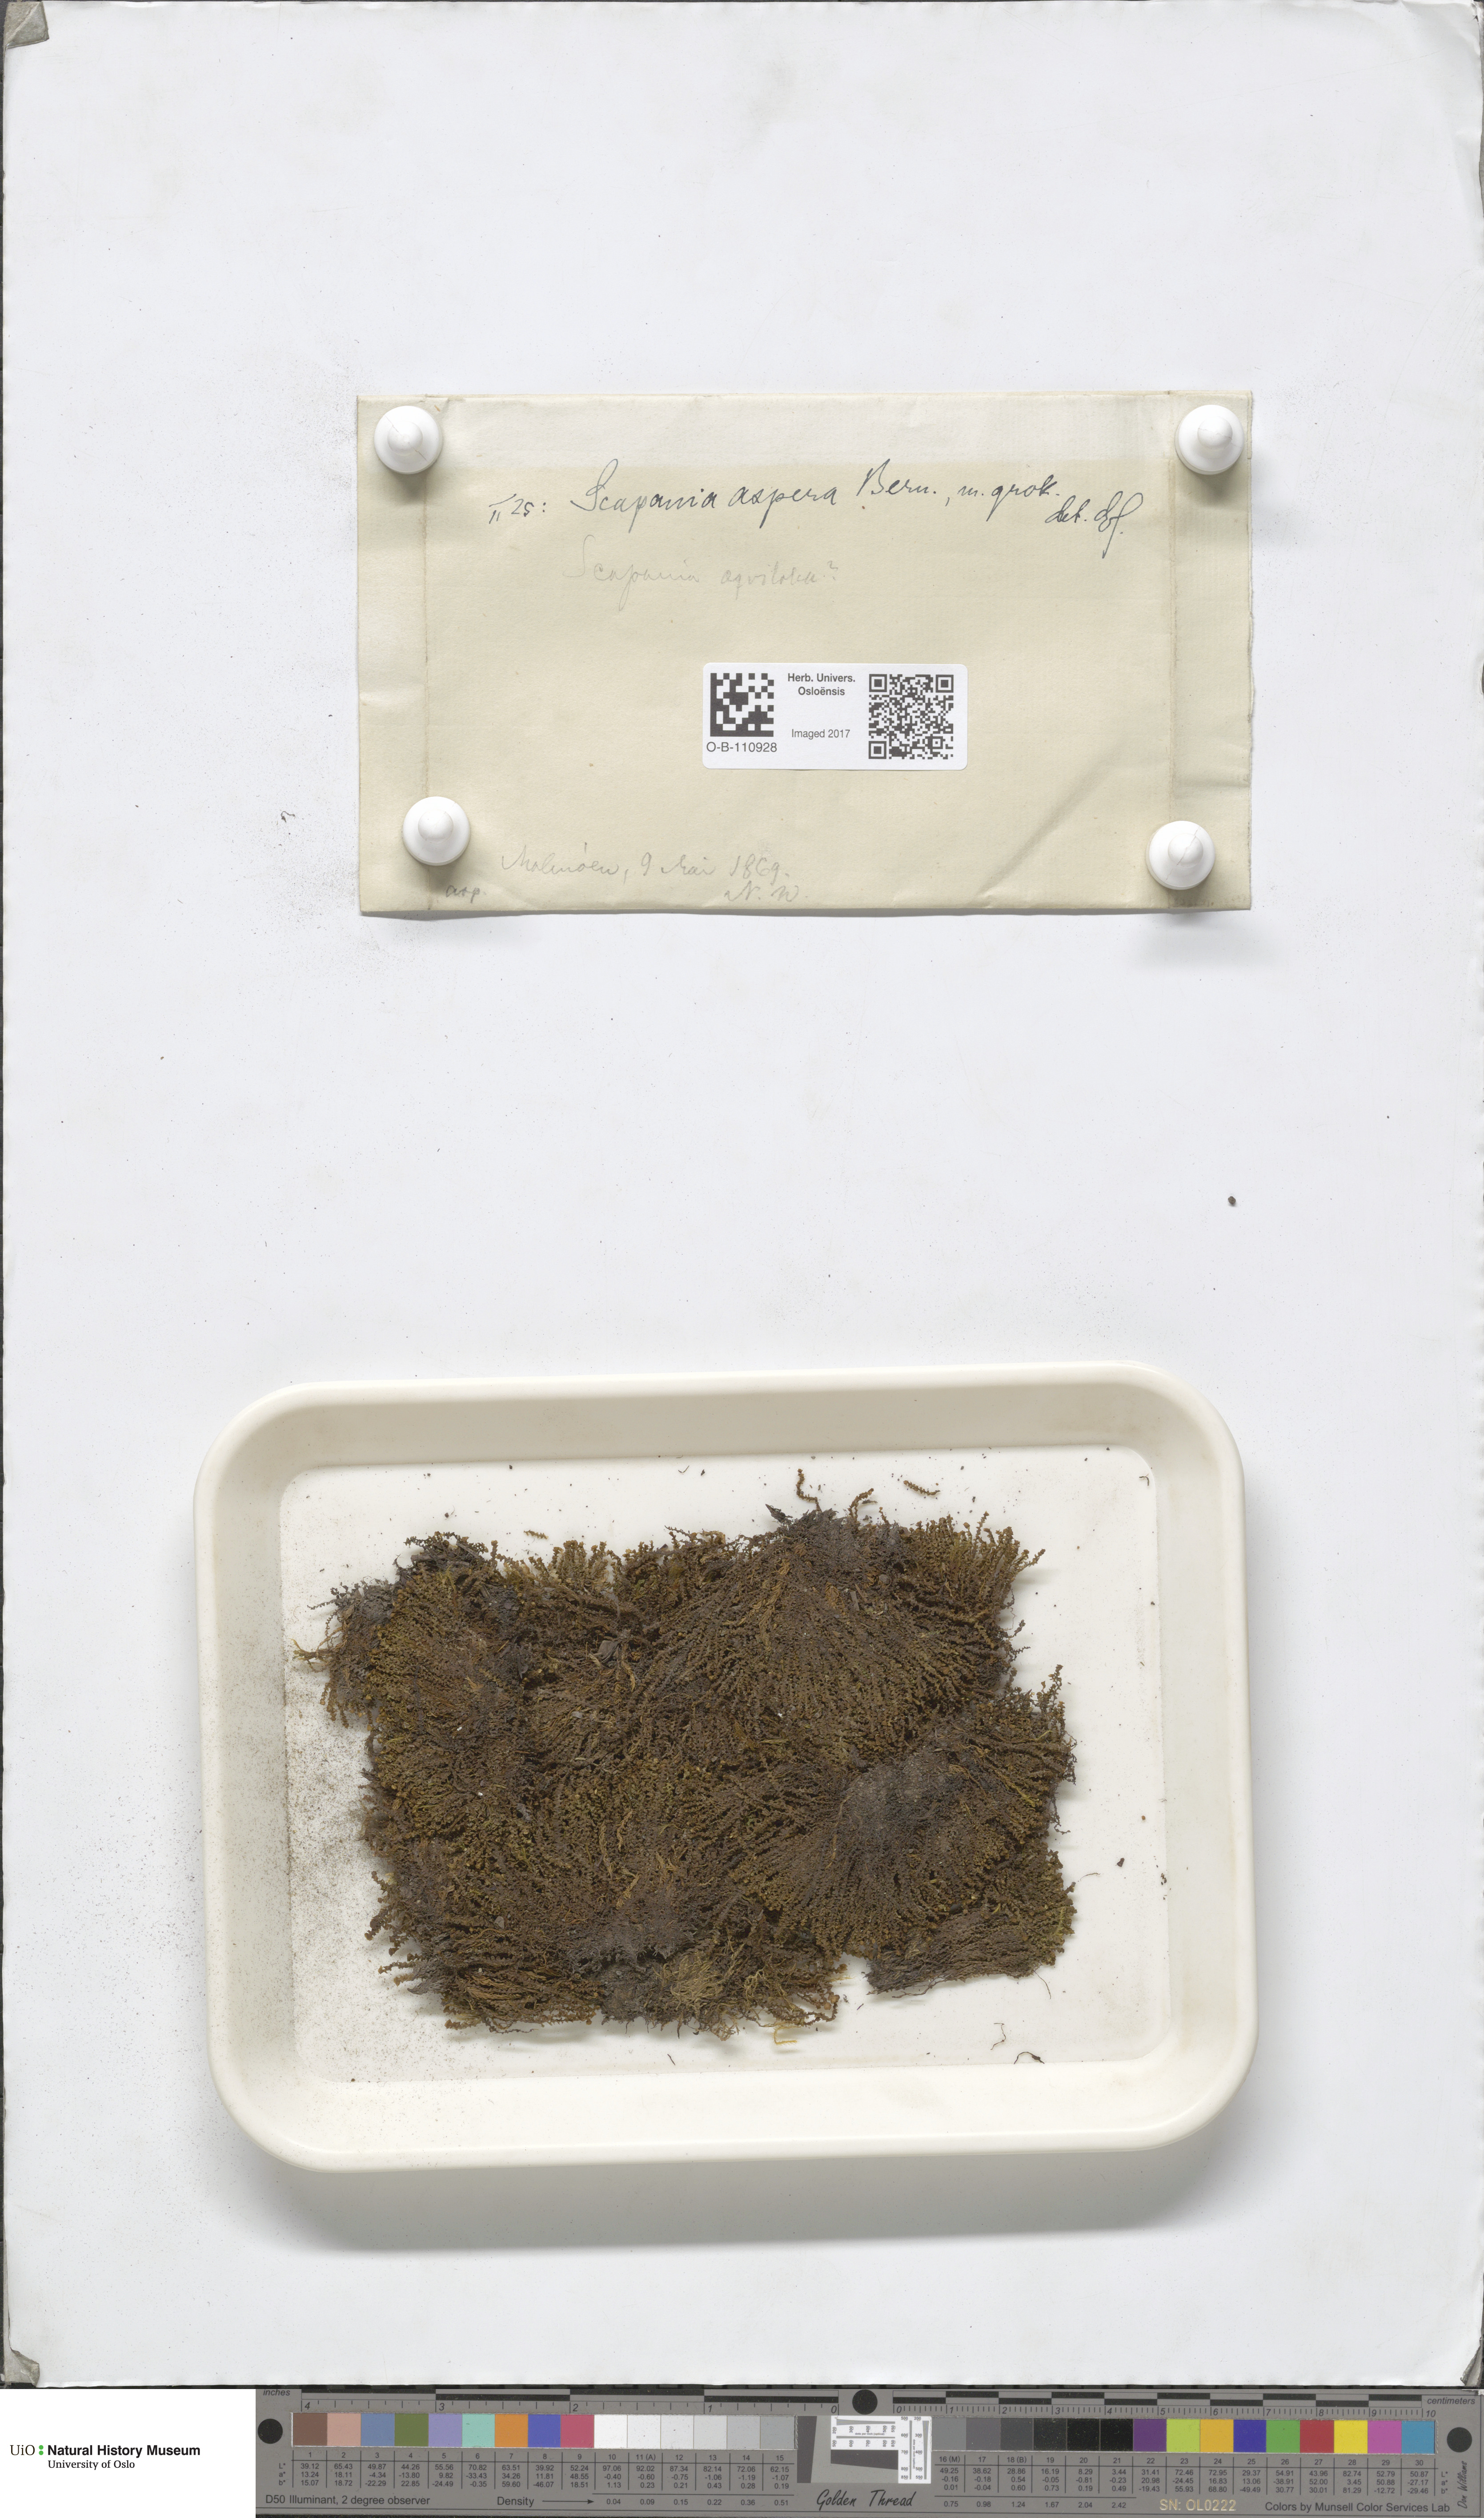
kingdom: Plantae
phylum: Marchantiophyta
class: Jungermanniopsida
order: Jungermanniales
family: Scapaniaceae
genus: Scapania
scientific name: Scapania aspera
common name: Rough earwort
